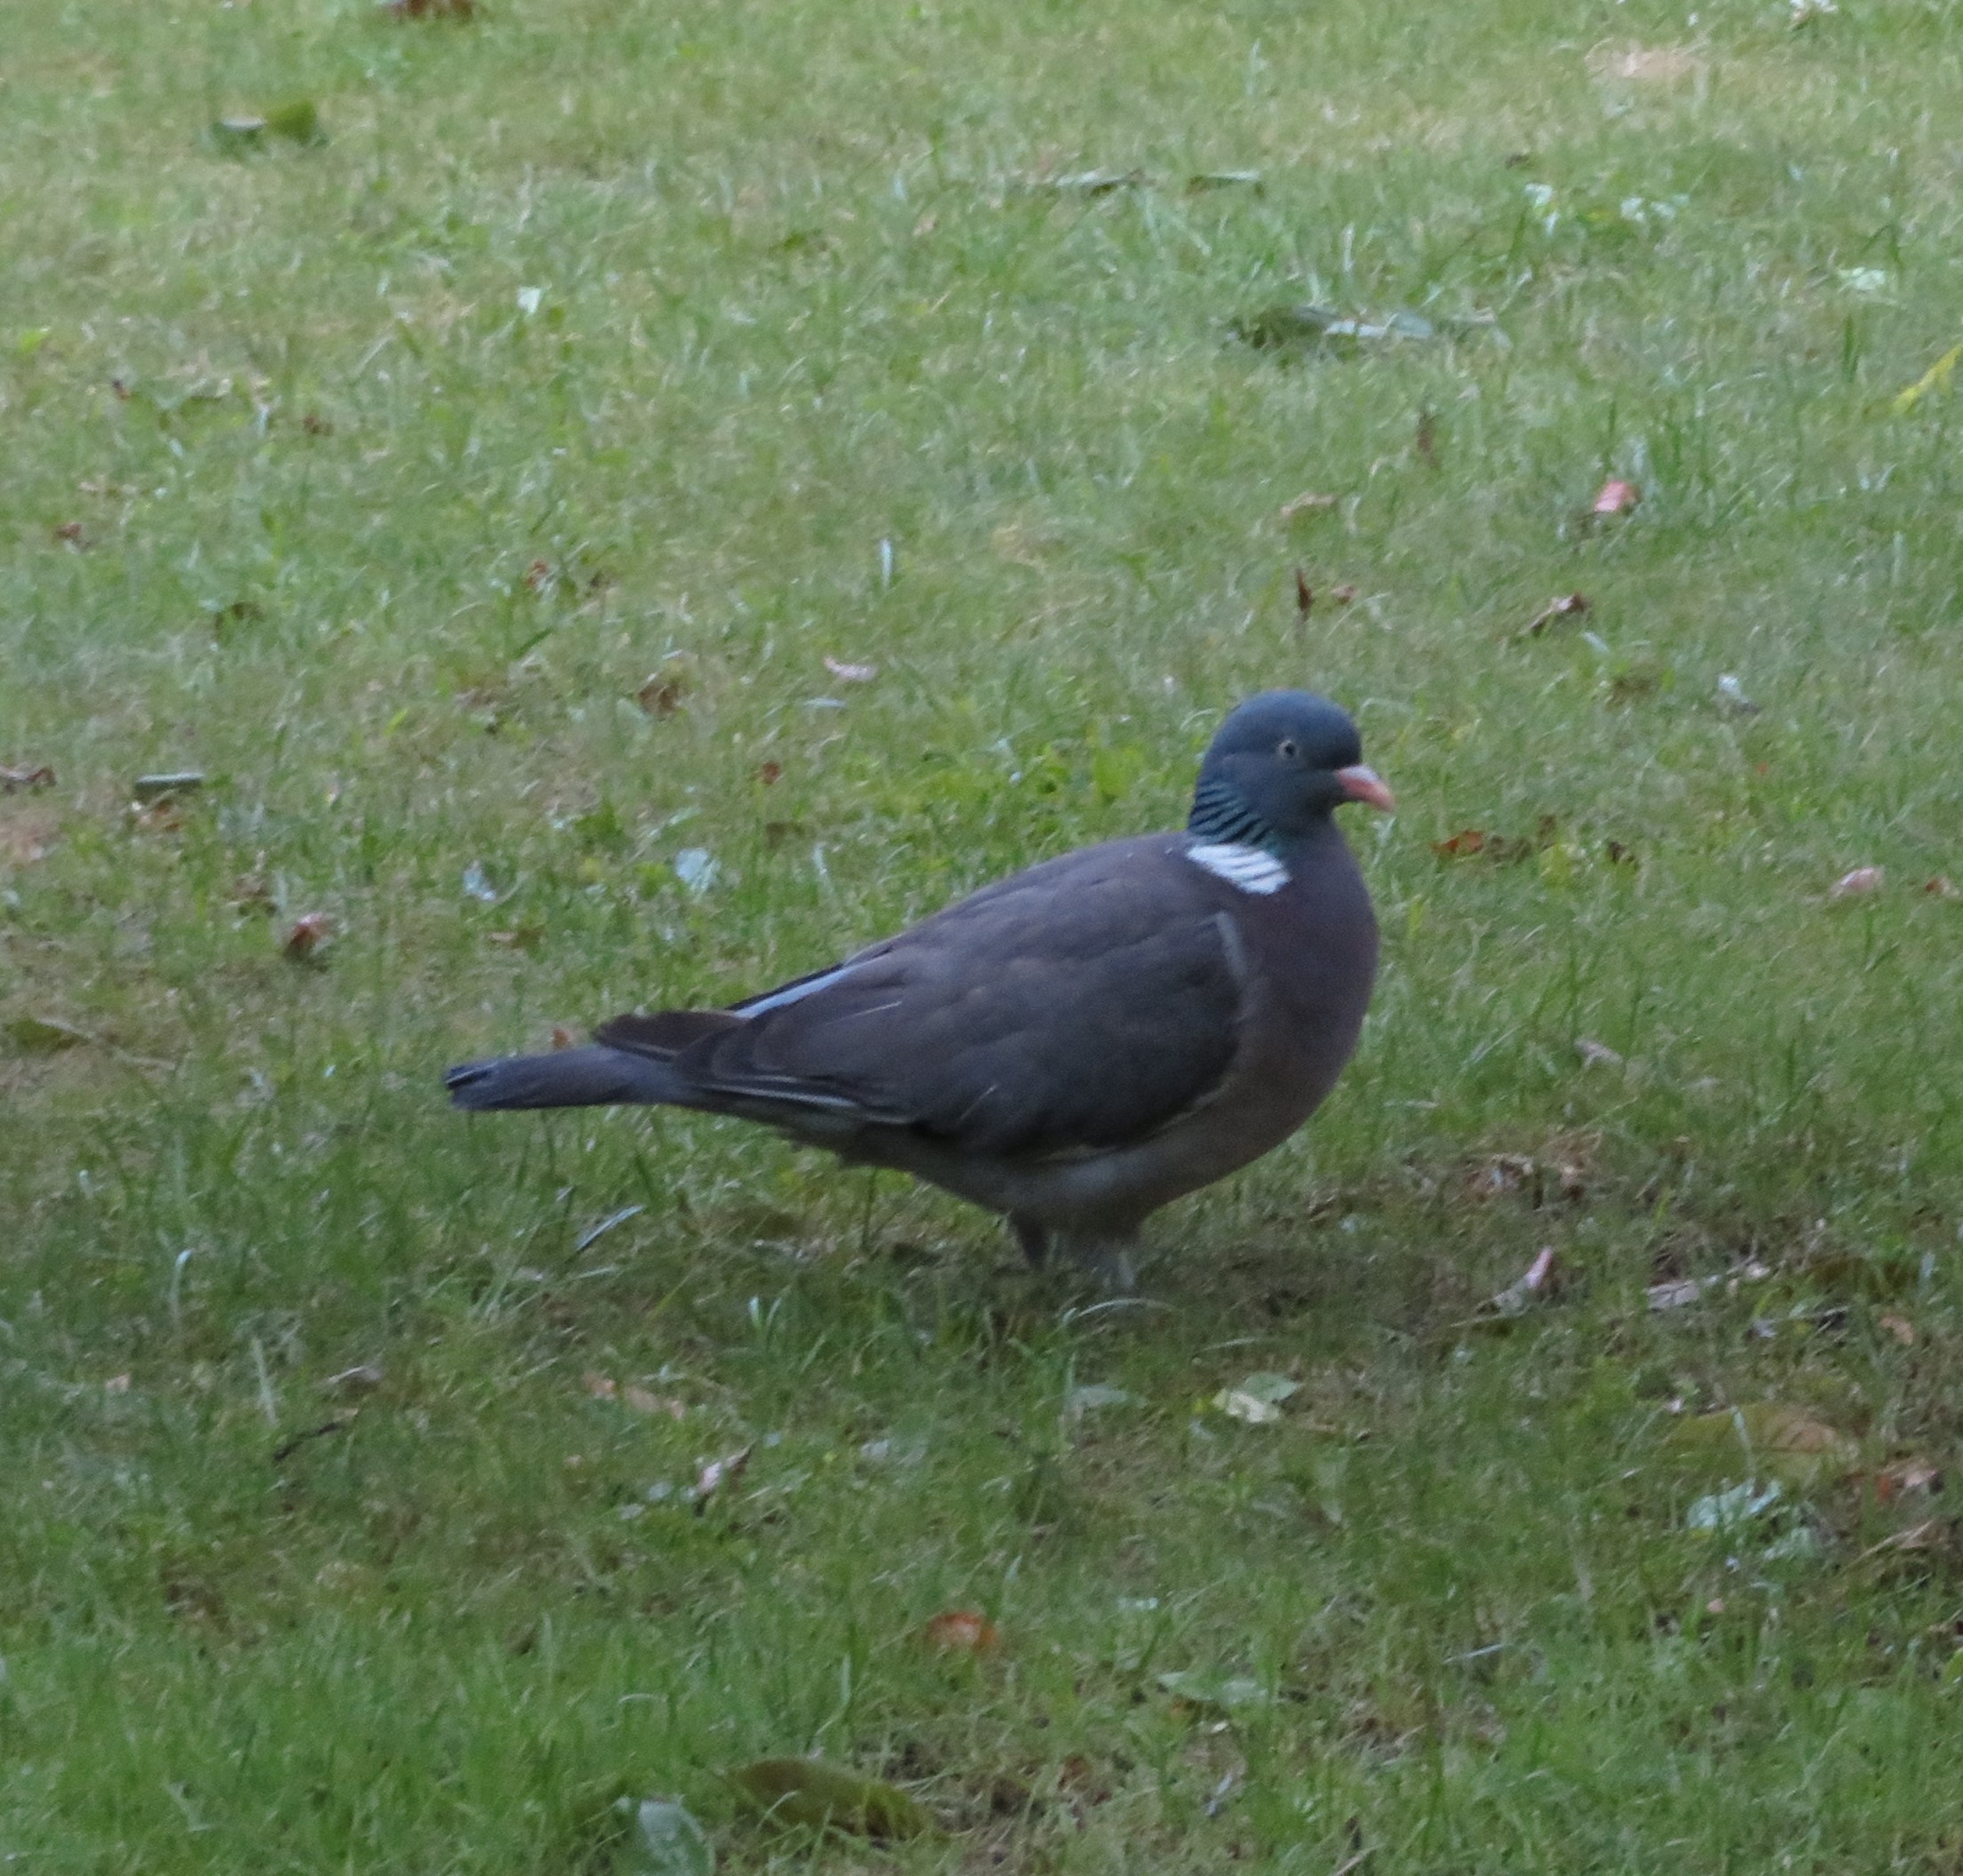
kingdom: Animalia
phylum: Chordata
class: Aves
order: Columbiformes
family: Columbidae
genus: Columba
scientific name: Columba palumbus
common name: Ringdue
